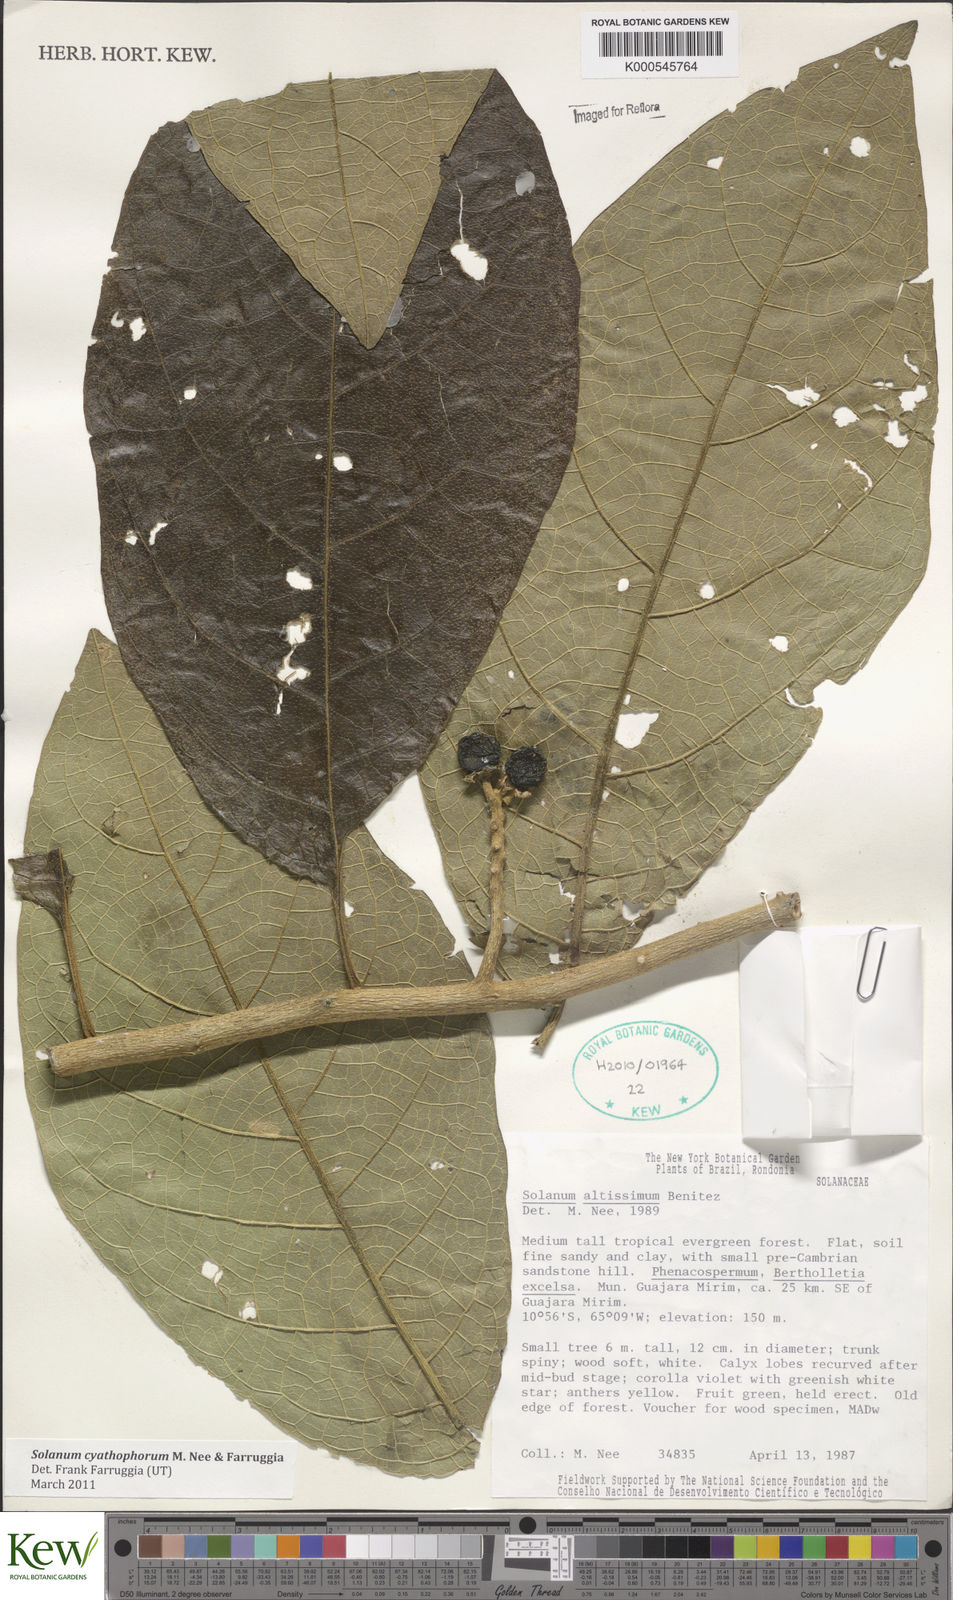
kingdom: Plantae
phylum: Tracheophyta
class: Magnoliopsida
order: Solanales
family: Solanaceae
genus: Solanum
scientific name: Solanum cyathophorum
